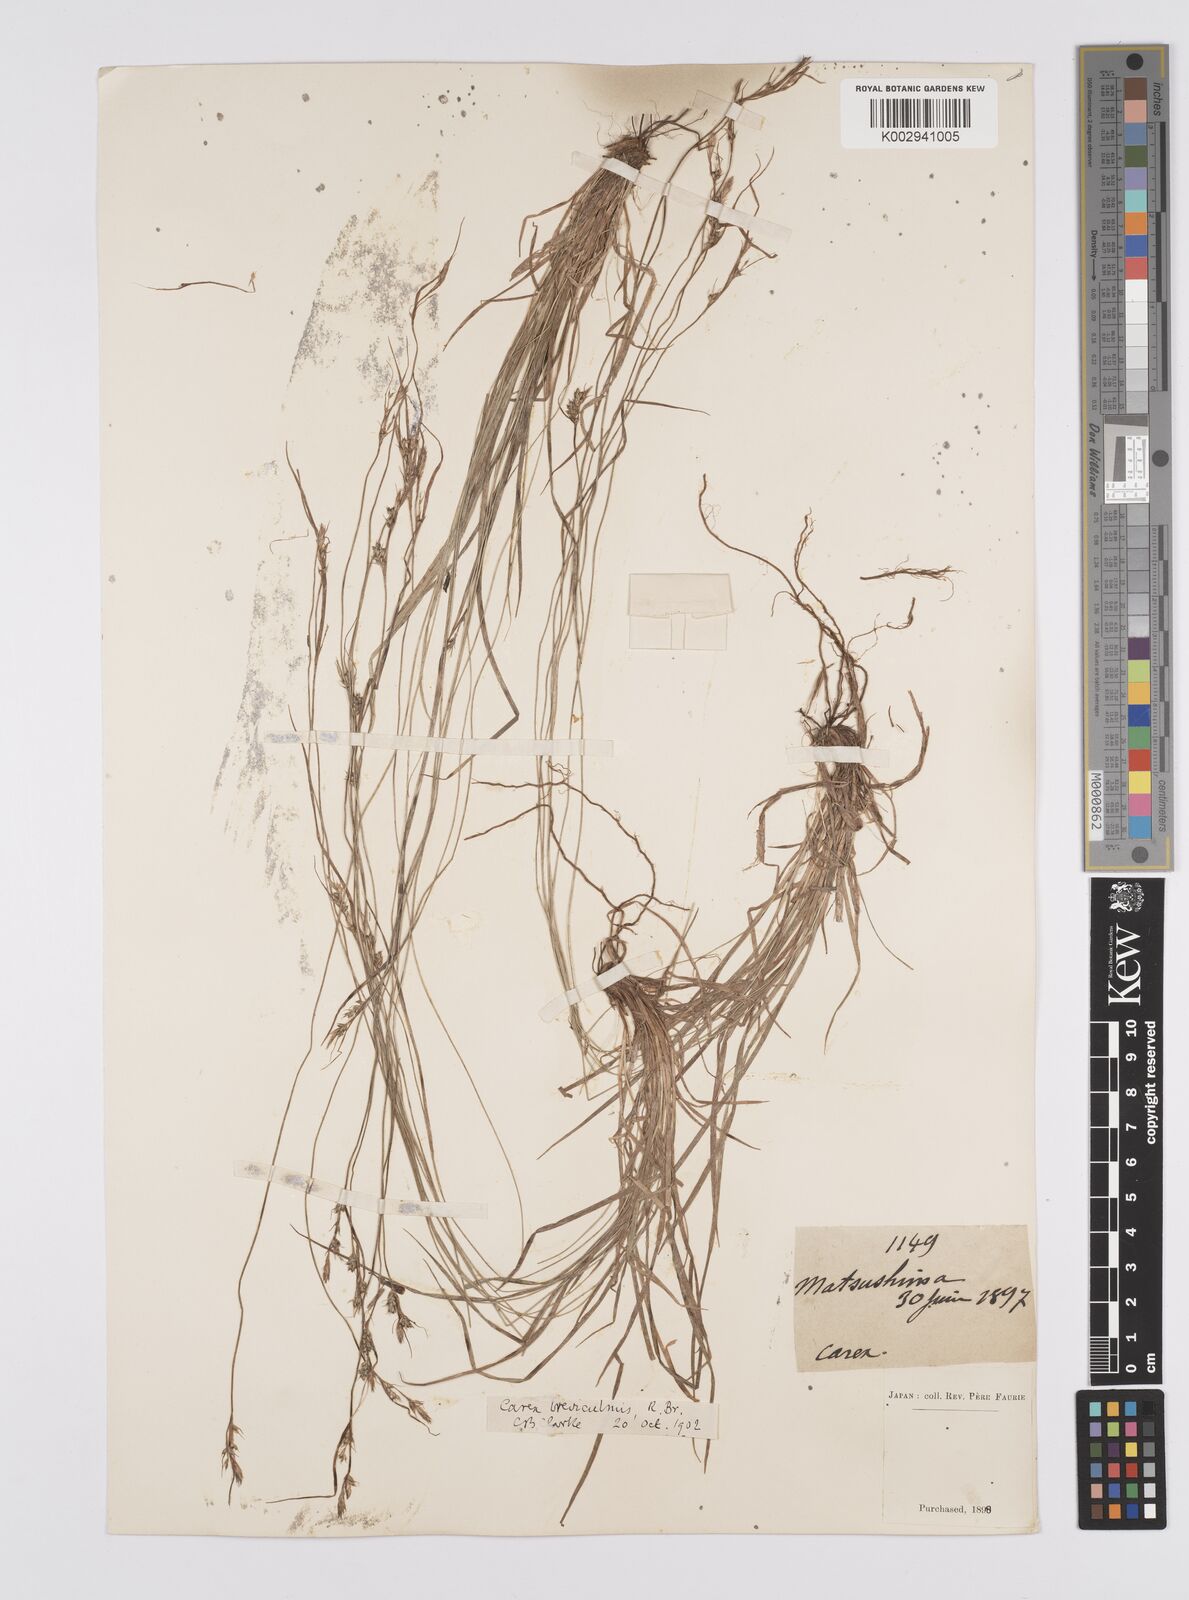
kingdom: Plantae
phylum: Tracheophyta
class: Liliopsida
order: Poales
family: Cyperaceae
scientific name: Cyperaceae
